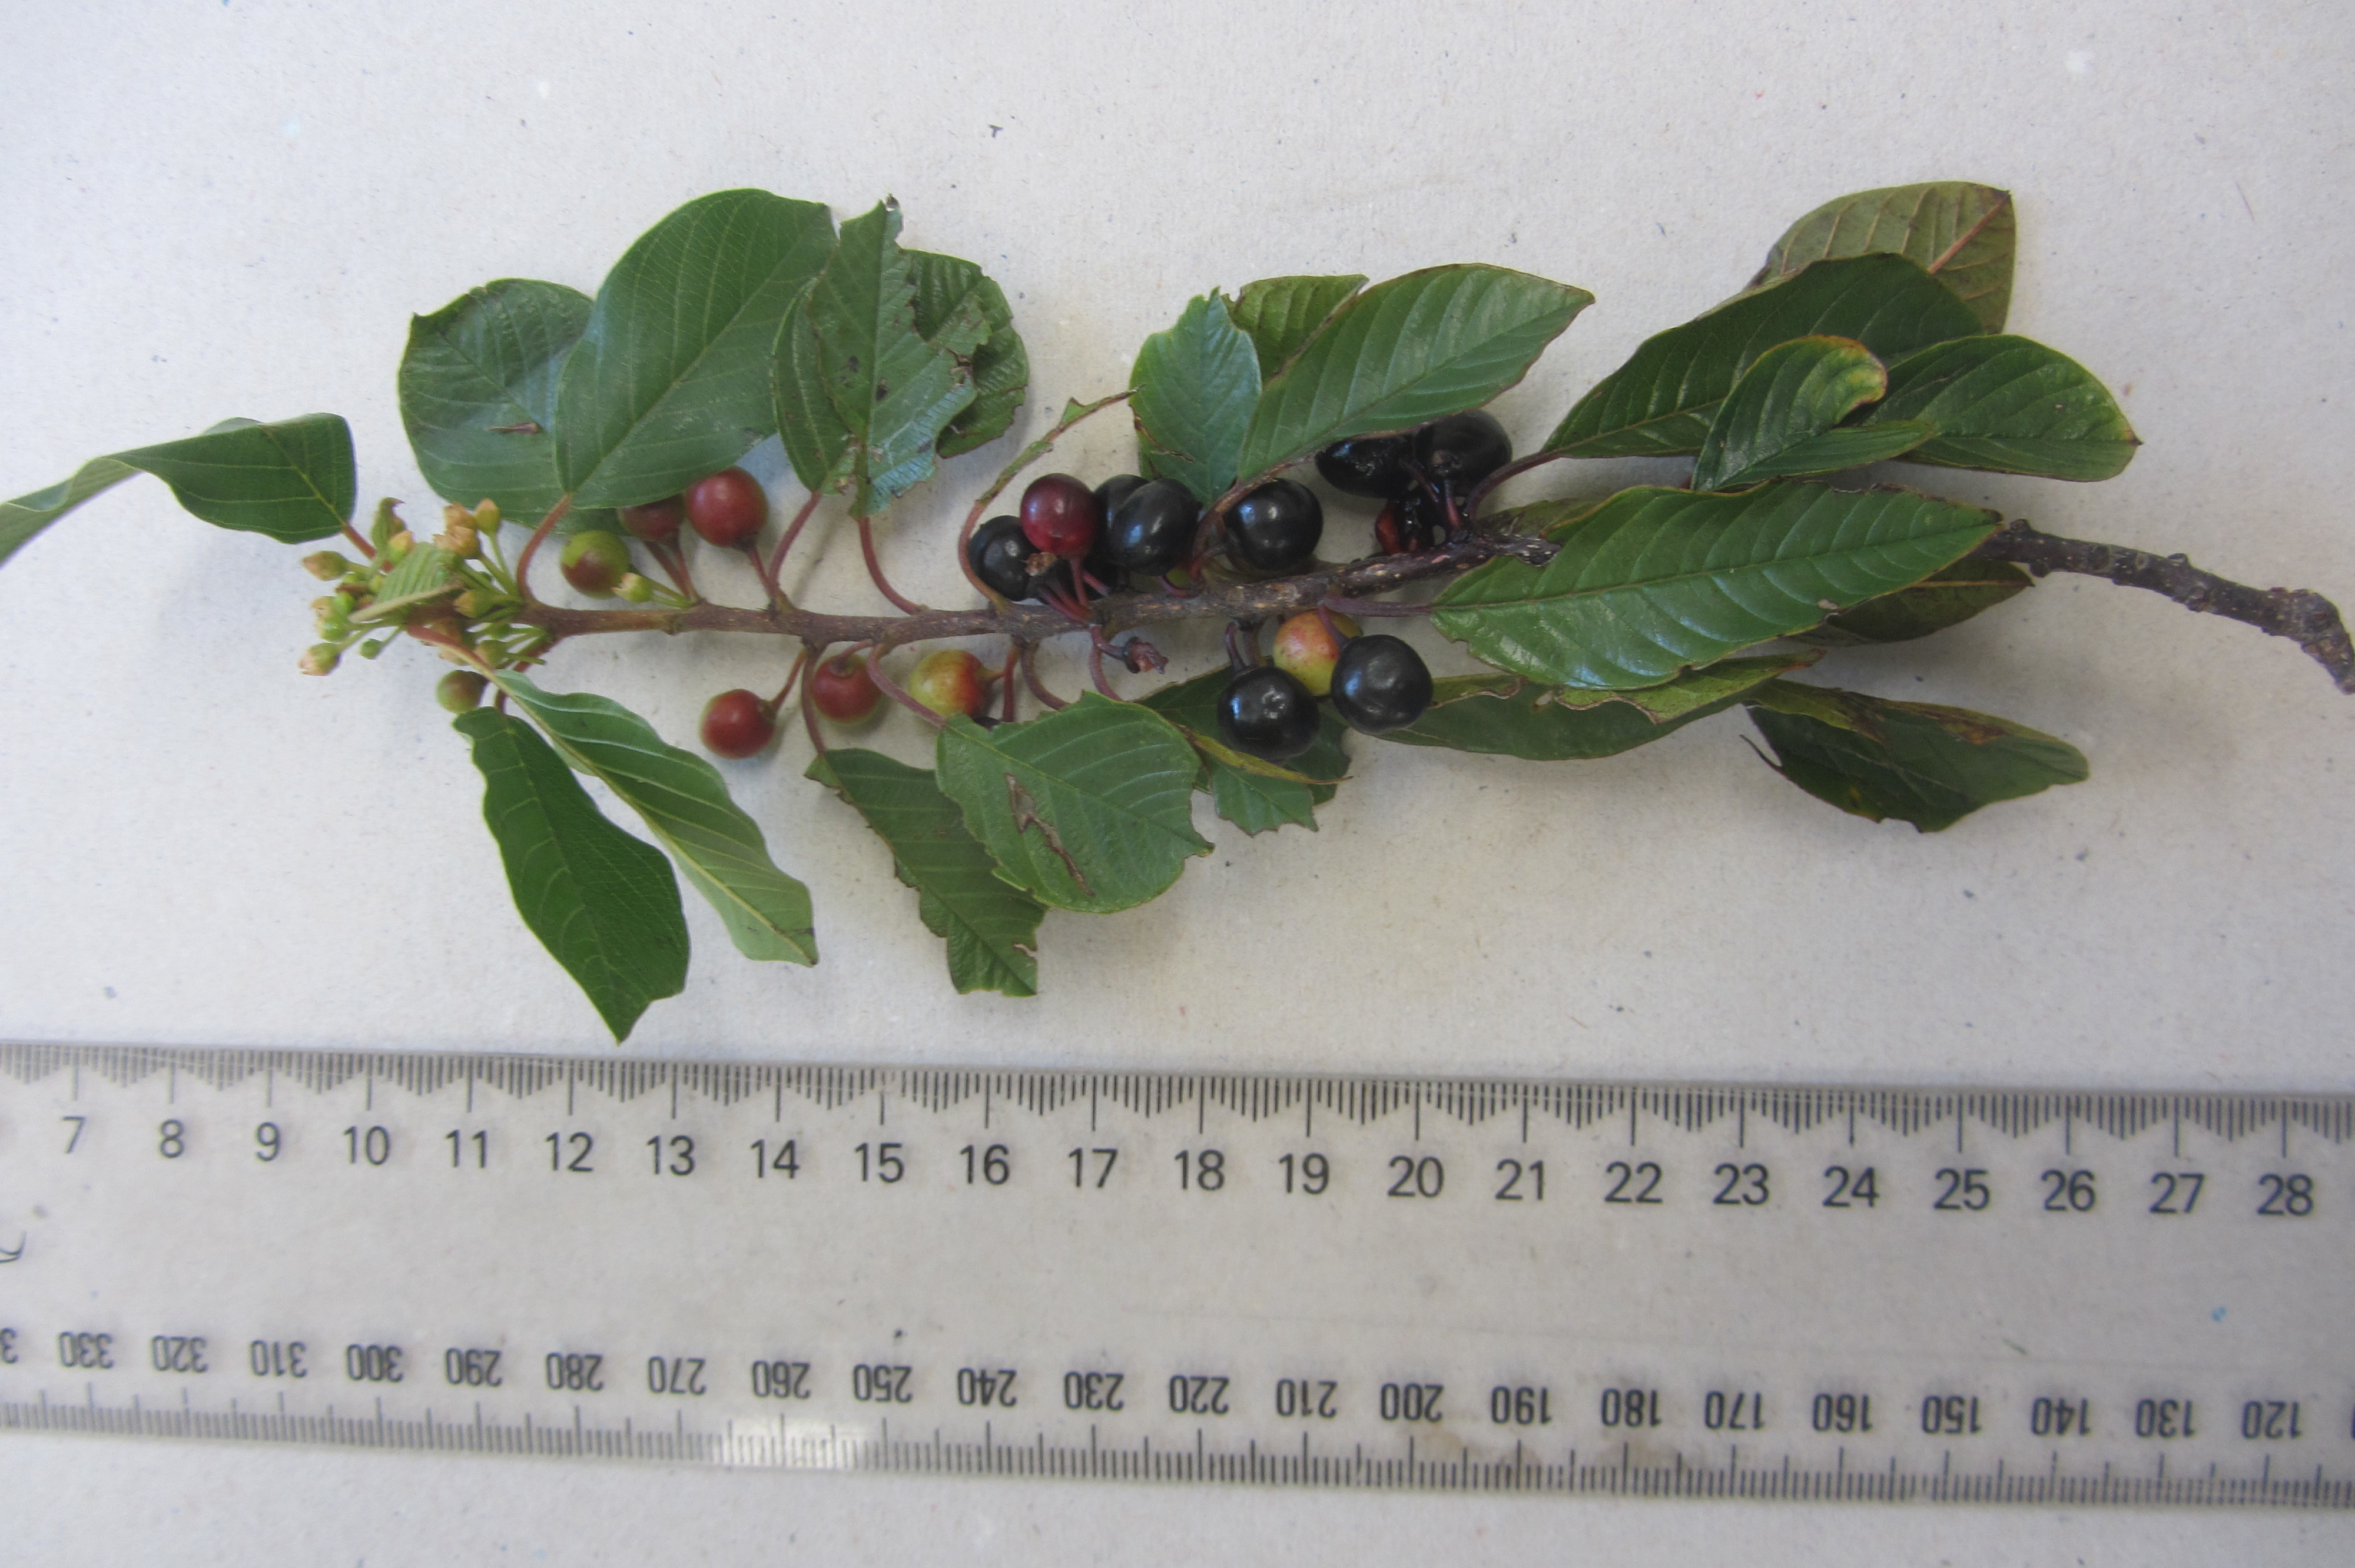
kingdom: Plantae
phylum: Tracheophyta
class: Magnoliopsida
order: Rosales
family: Rhamnaceae
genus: Frangula
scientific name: Frangula alnus
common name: Alder buckthorn
